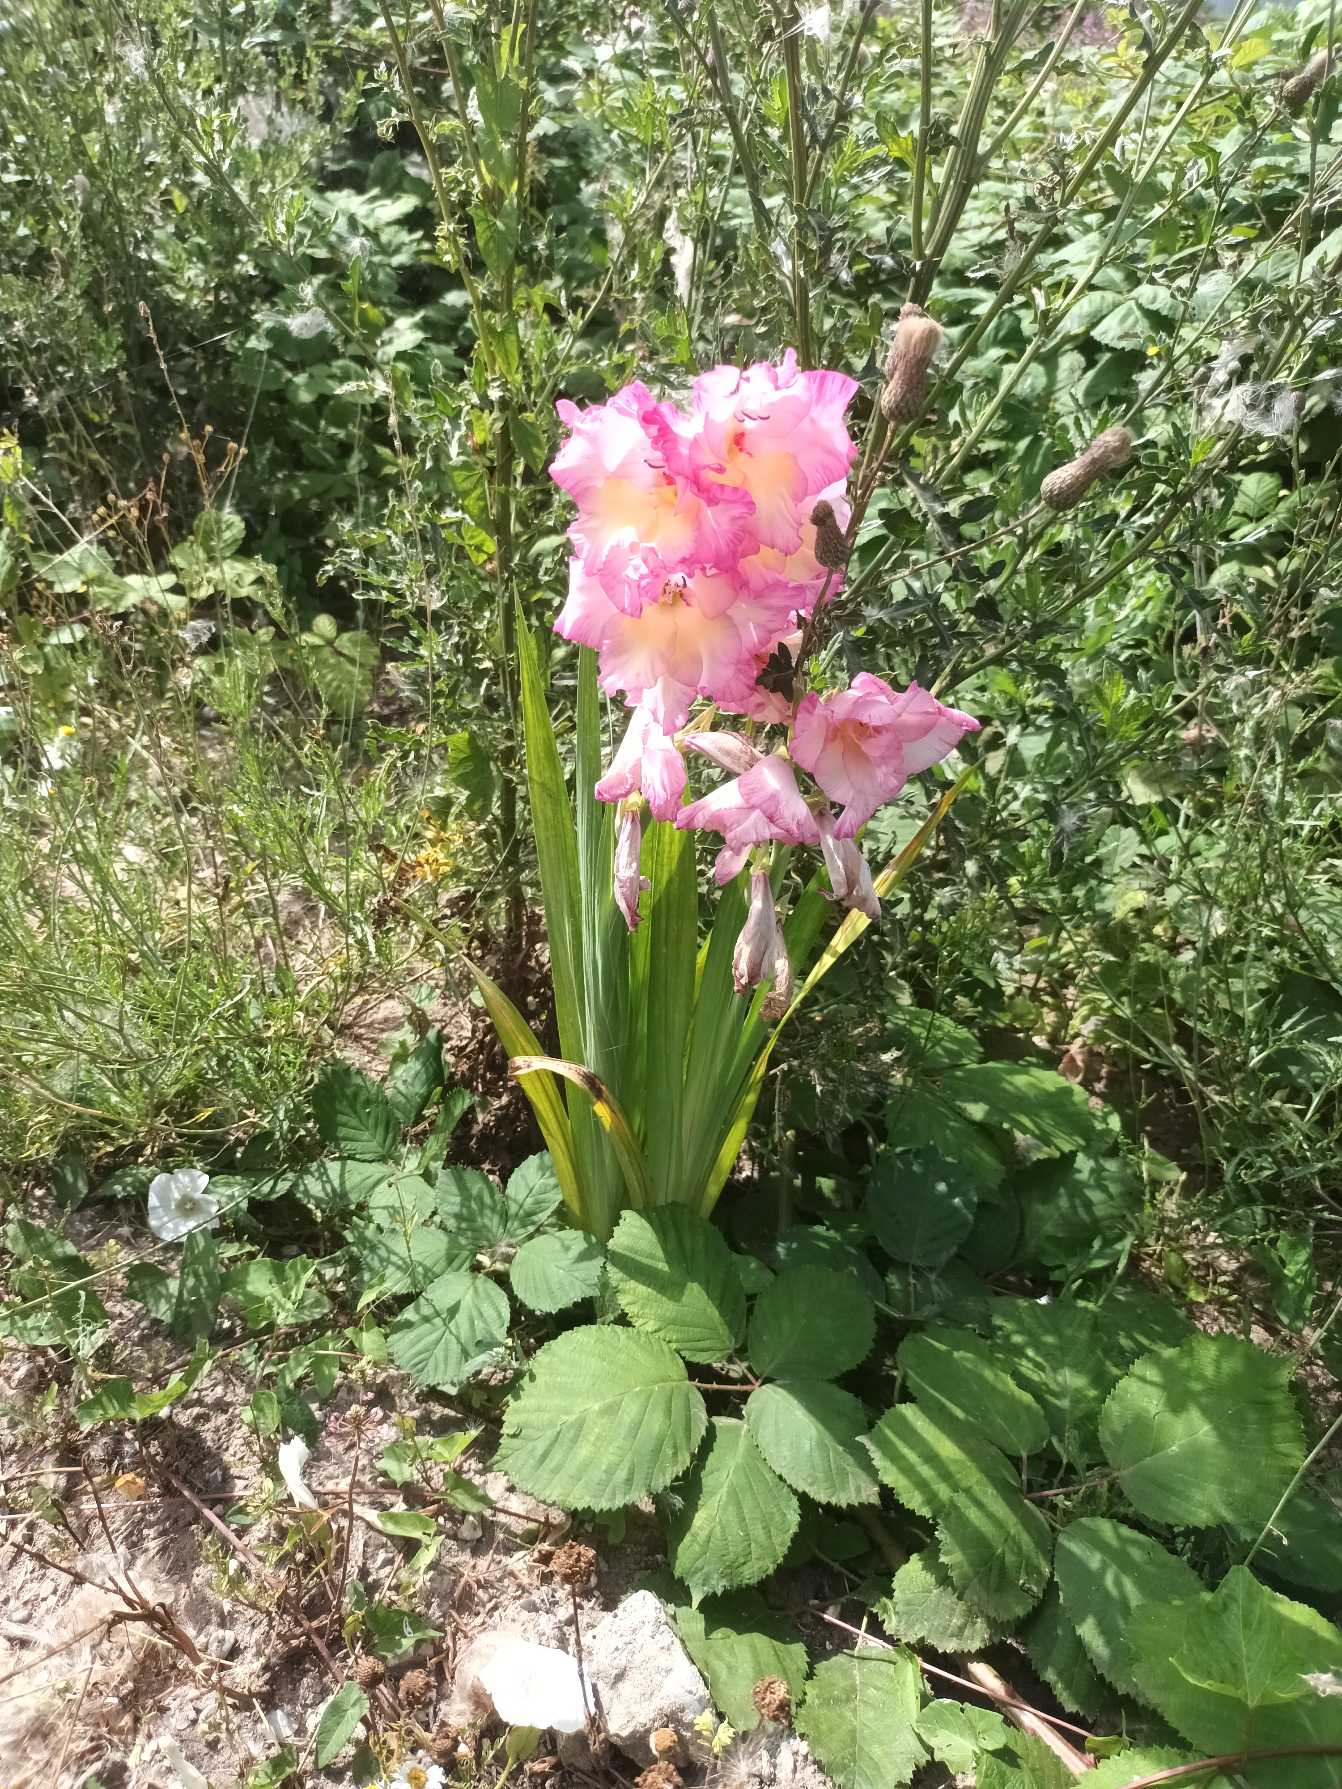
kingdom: Plantae
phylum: Tracheophyta
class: Liliopsida
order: Asparagales
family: Iridaceae
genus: Gladiolus
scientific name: Gladiolus hortulanus
